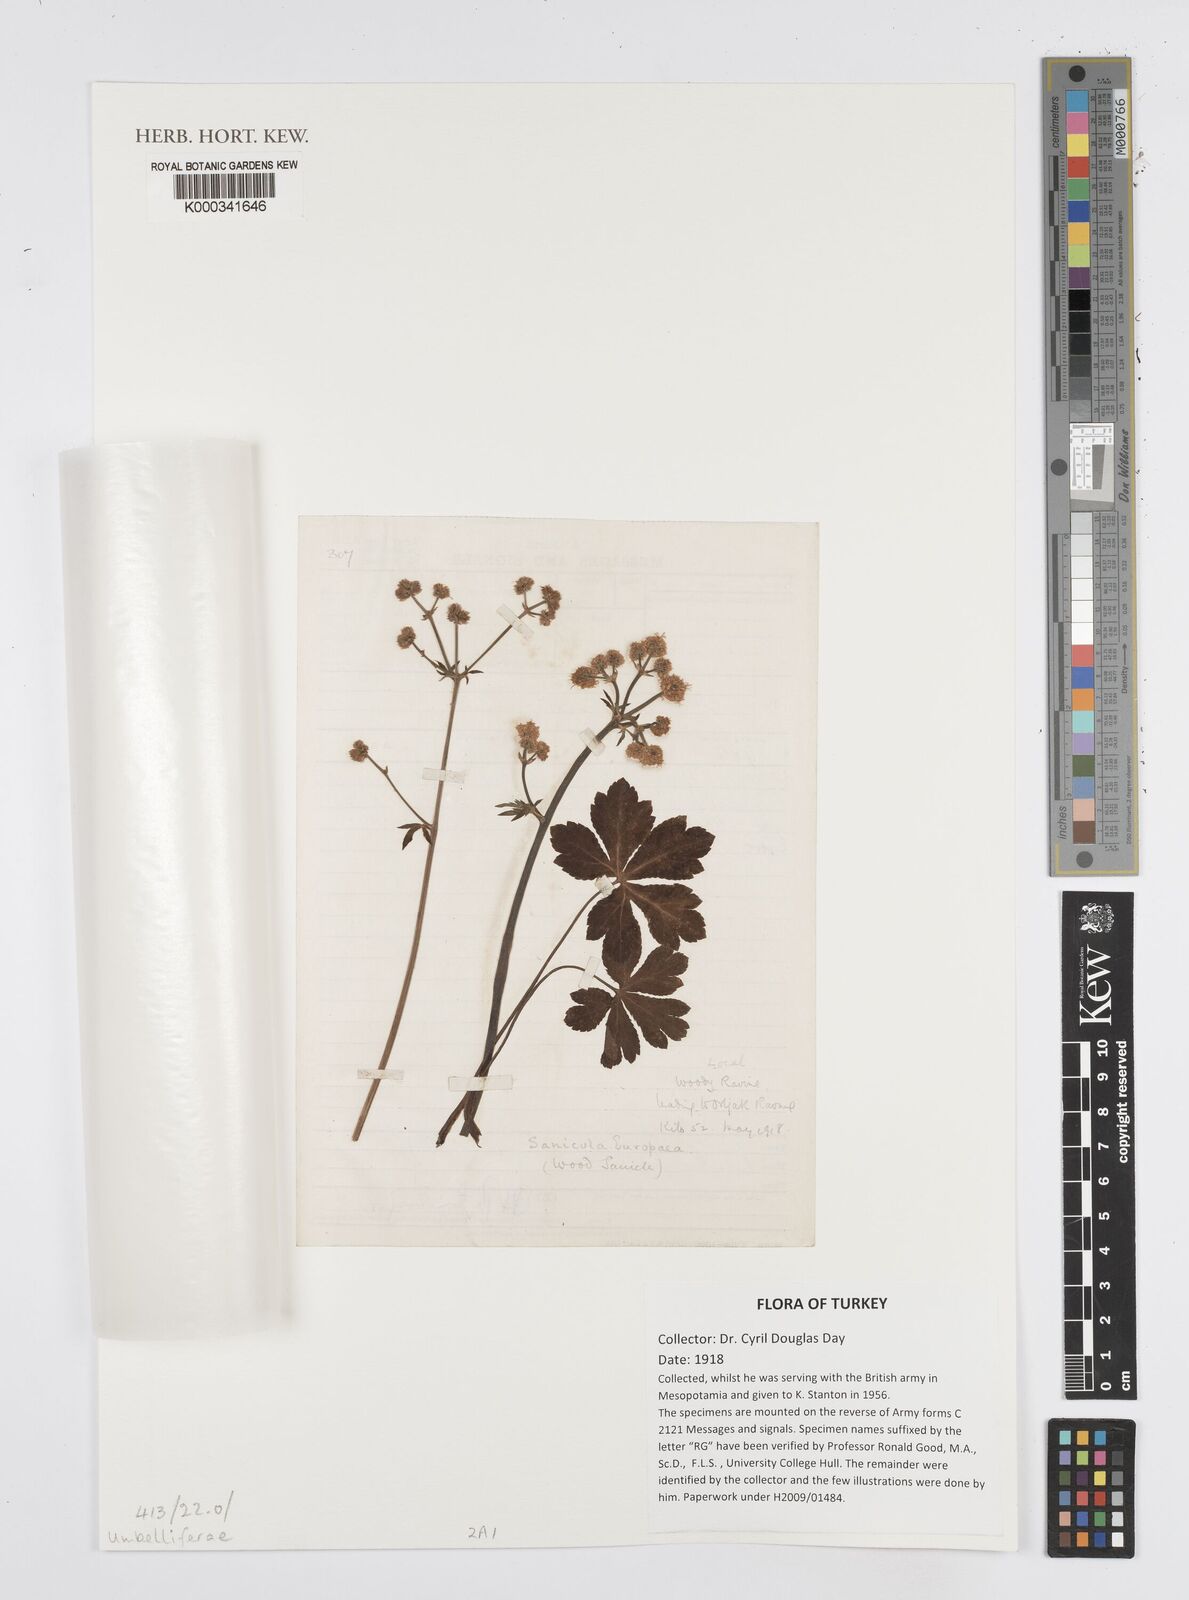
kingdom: Plantae
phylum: Tracheophyta
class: Magnoliopsida
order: Apiales
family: Apiaceae
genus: Sanicula
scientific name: Sanicula europaea
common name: Sanicle
